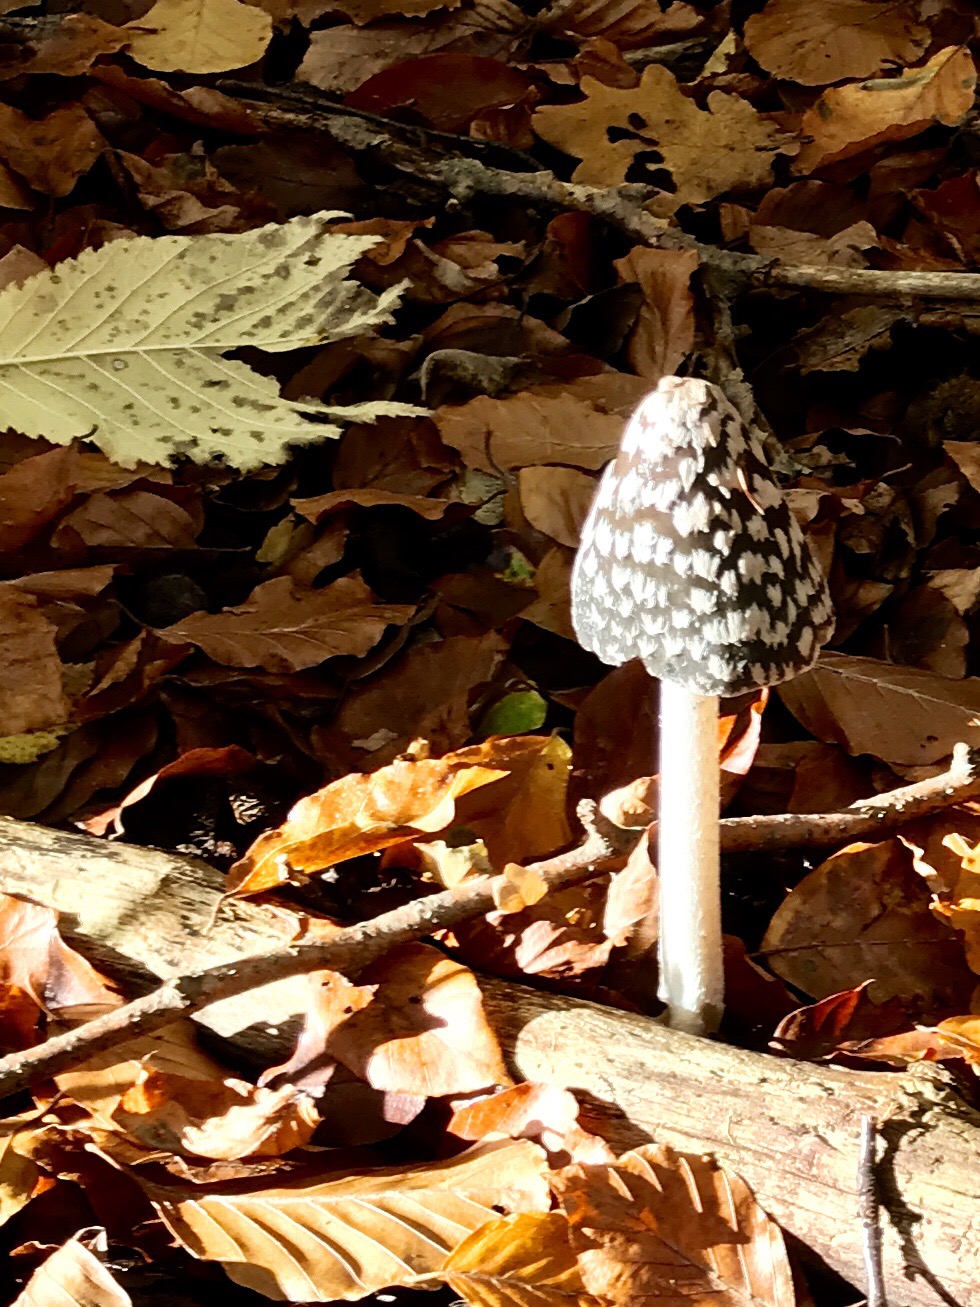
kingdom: Fungi
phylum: Basidiomycota
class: Agaricomycetes
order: Agaricales
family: Psathyrellaceae
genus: Coprinopsis
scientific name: Coprinopsis picacea
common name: skade-blækhat
